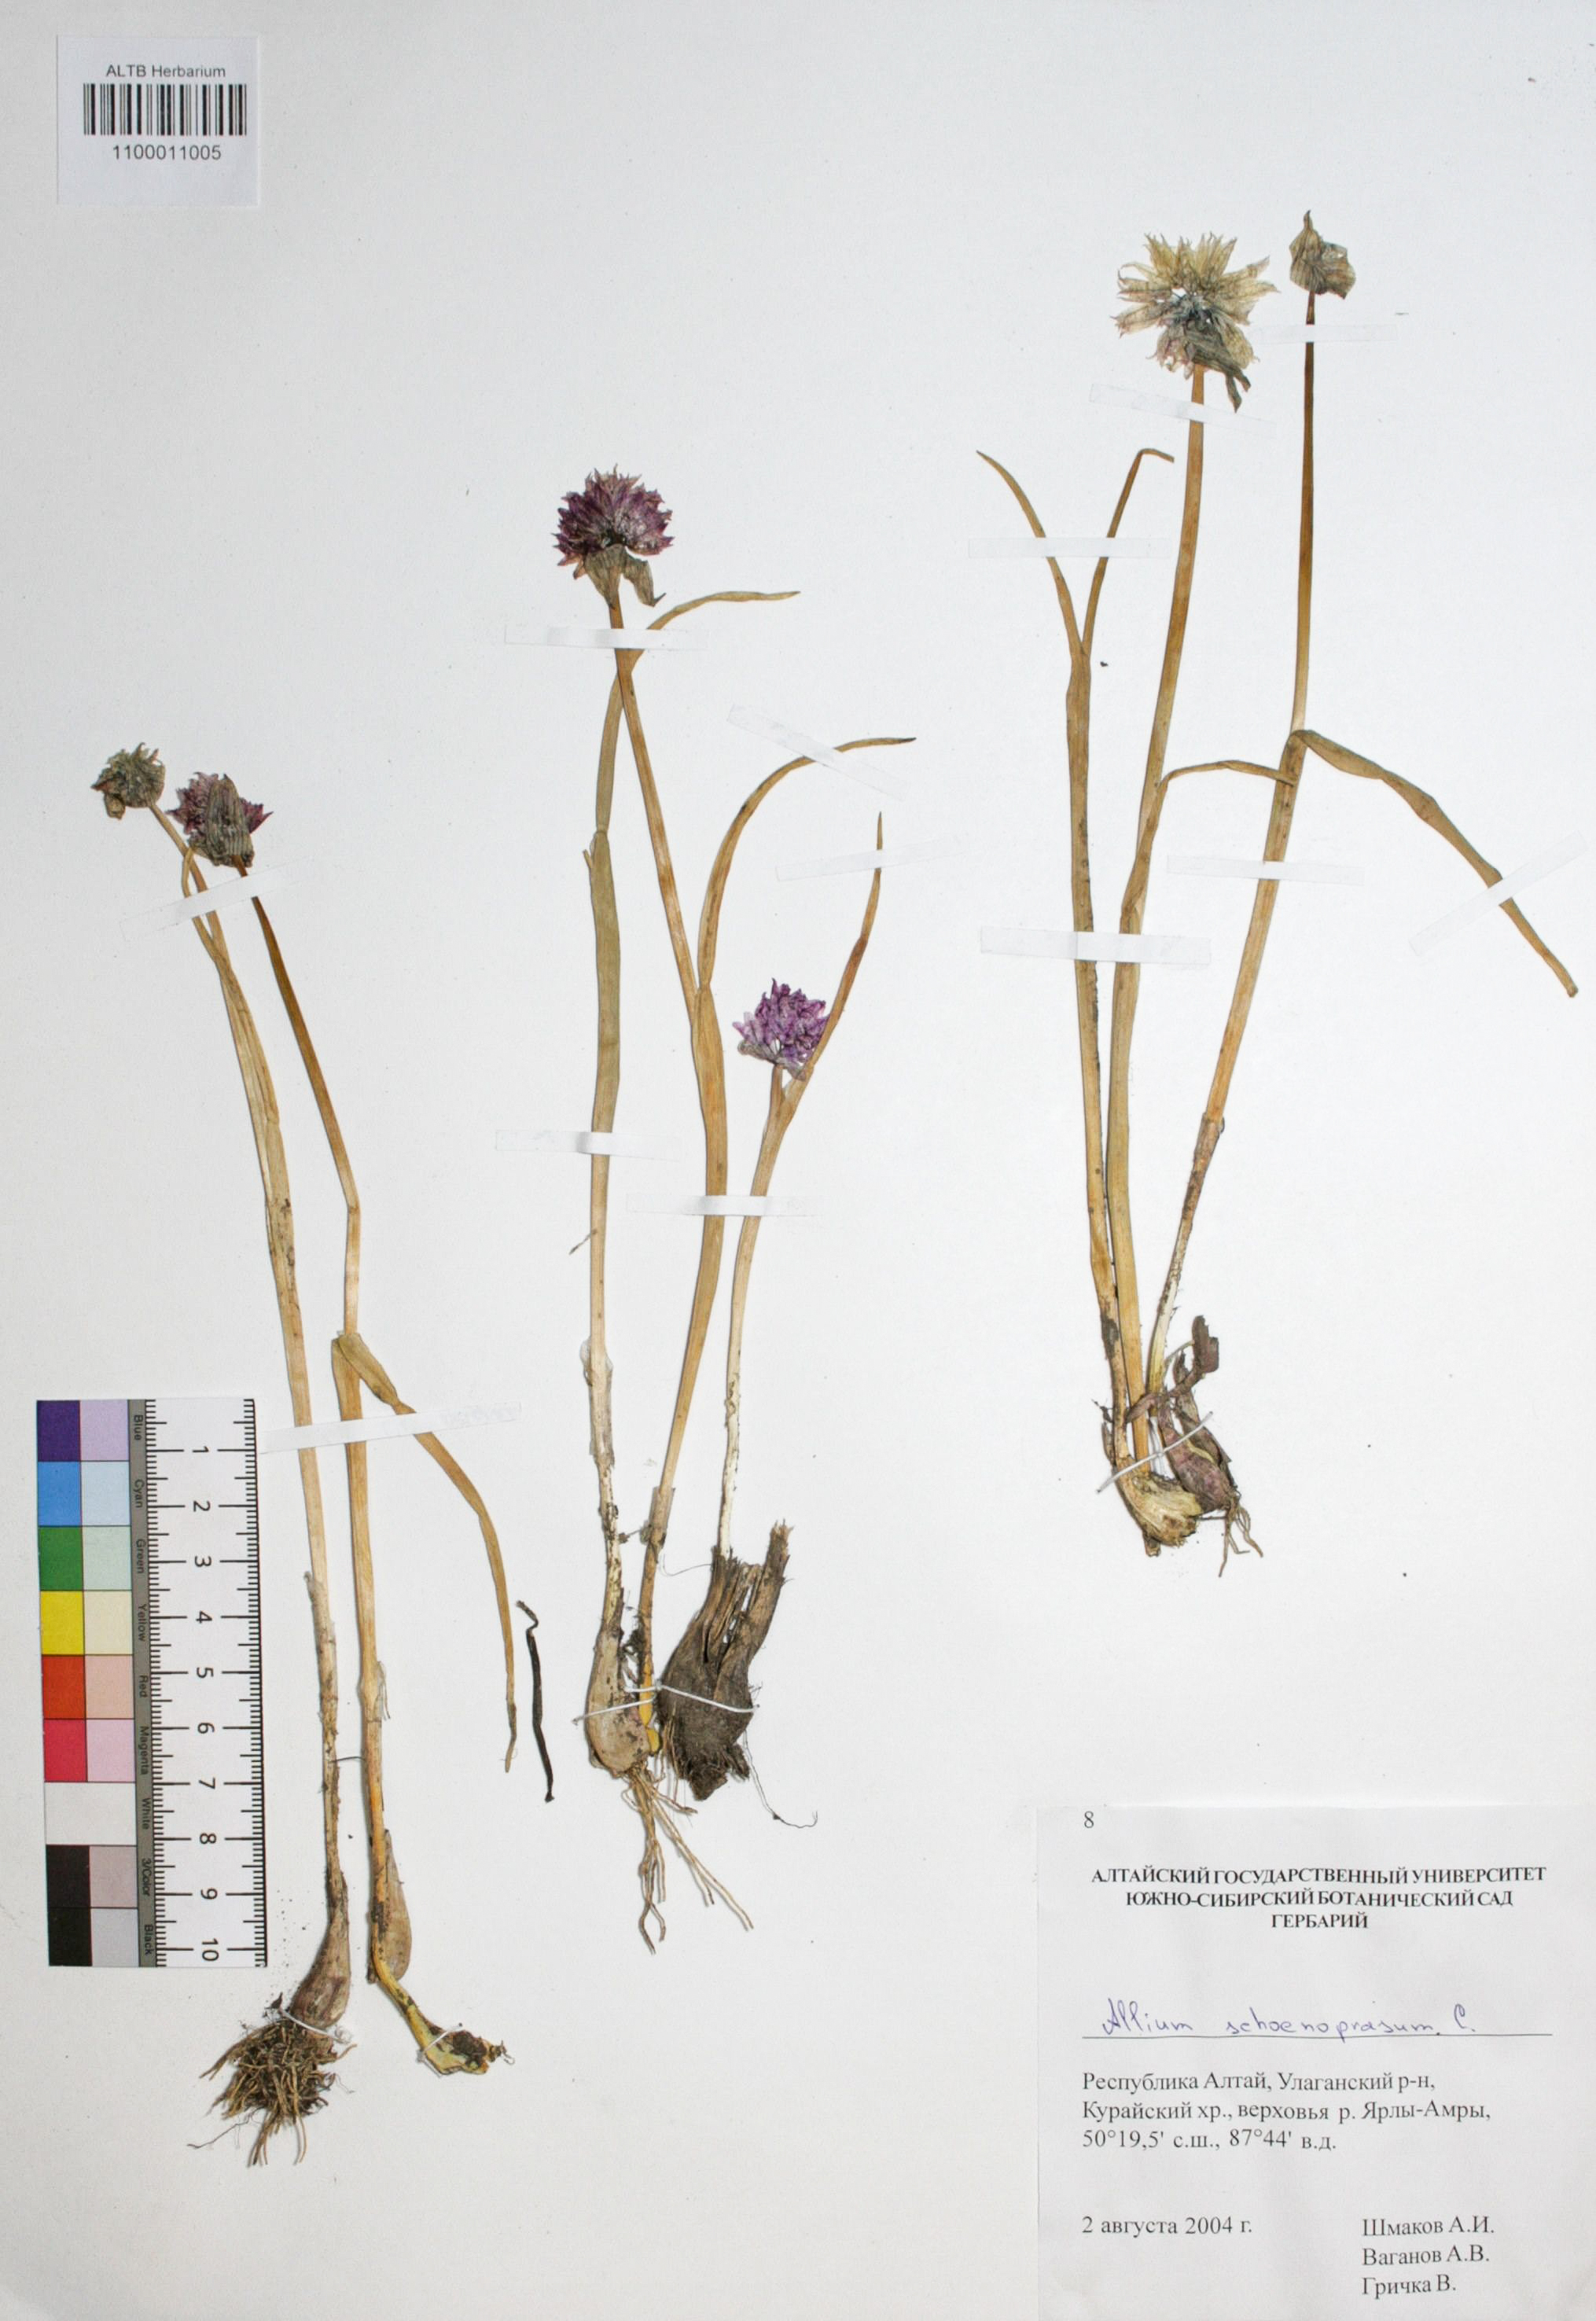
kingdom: Plantae
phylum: Tracheophyta
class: Liliopsida
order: Asparagales
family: Amaryllidaceae
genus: Allium
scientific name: Allium schoenoprasum
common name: Chives
